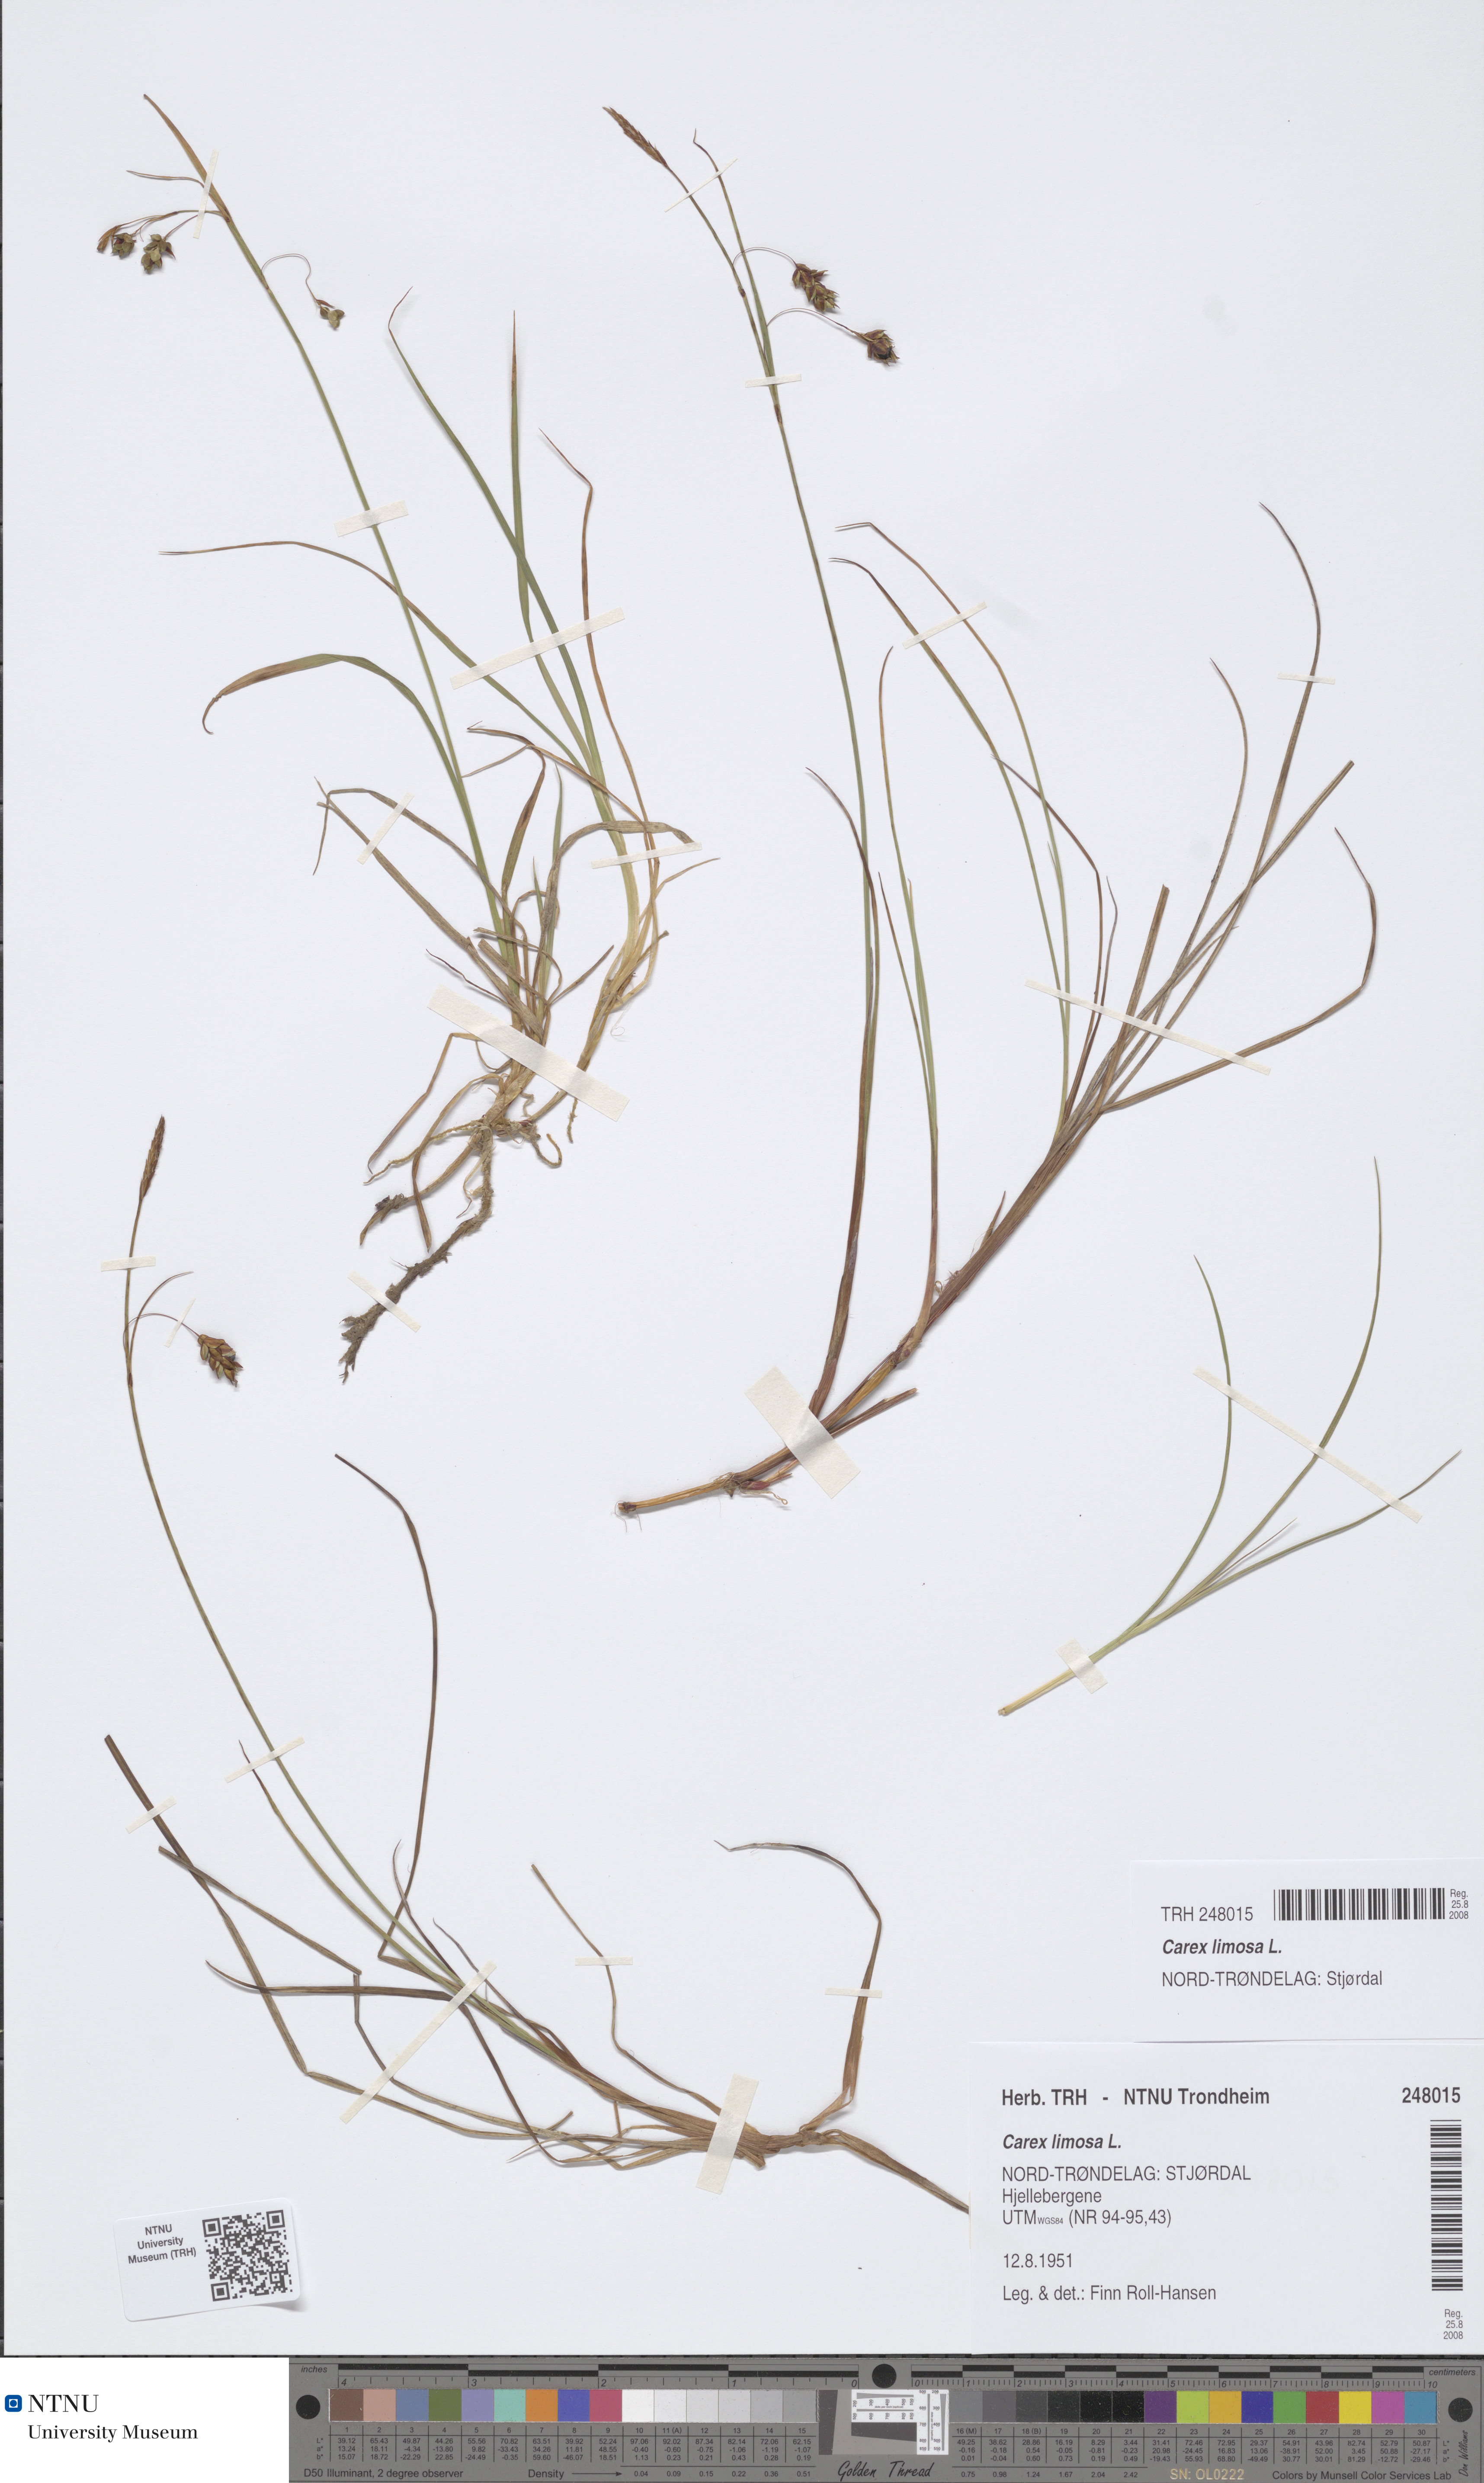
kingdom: Plantae
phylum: Tracheophyta
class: Liliopsida
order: Poales
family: Cyperaceae
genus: Carex
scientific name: Carex limosa
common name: Bog sedge
